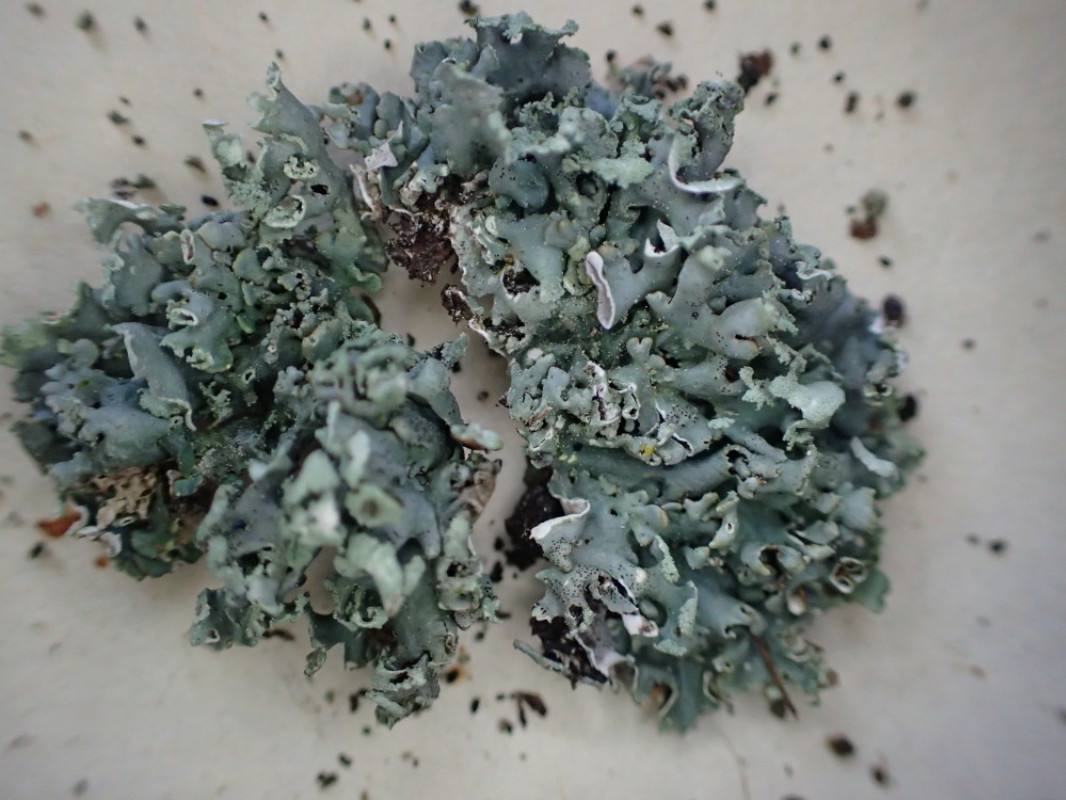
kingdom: Fungi
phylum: Ascomycota
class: Lecanoromycetes
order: Lecanorales
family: Parmeliaceae
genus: Hypogymnia
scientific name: Hypogymnia physodes
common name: almindelig kvistlav
